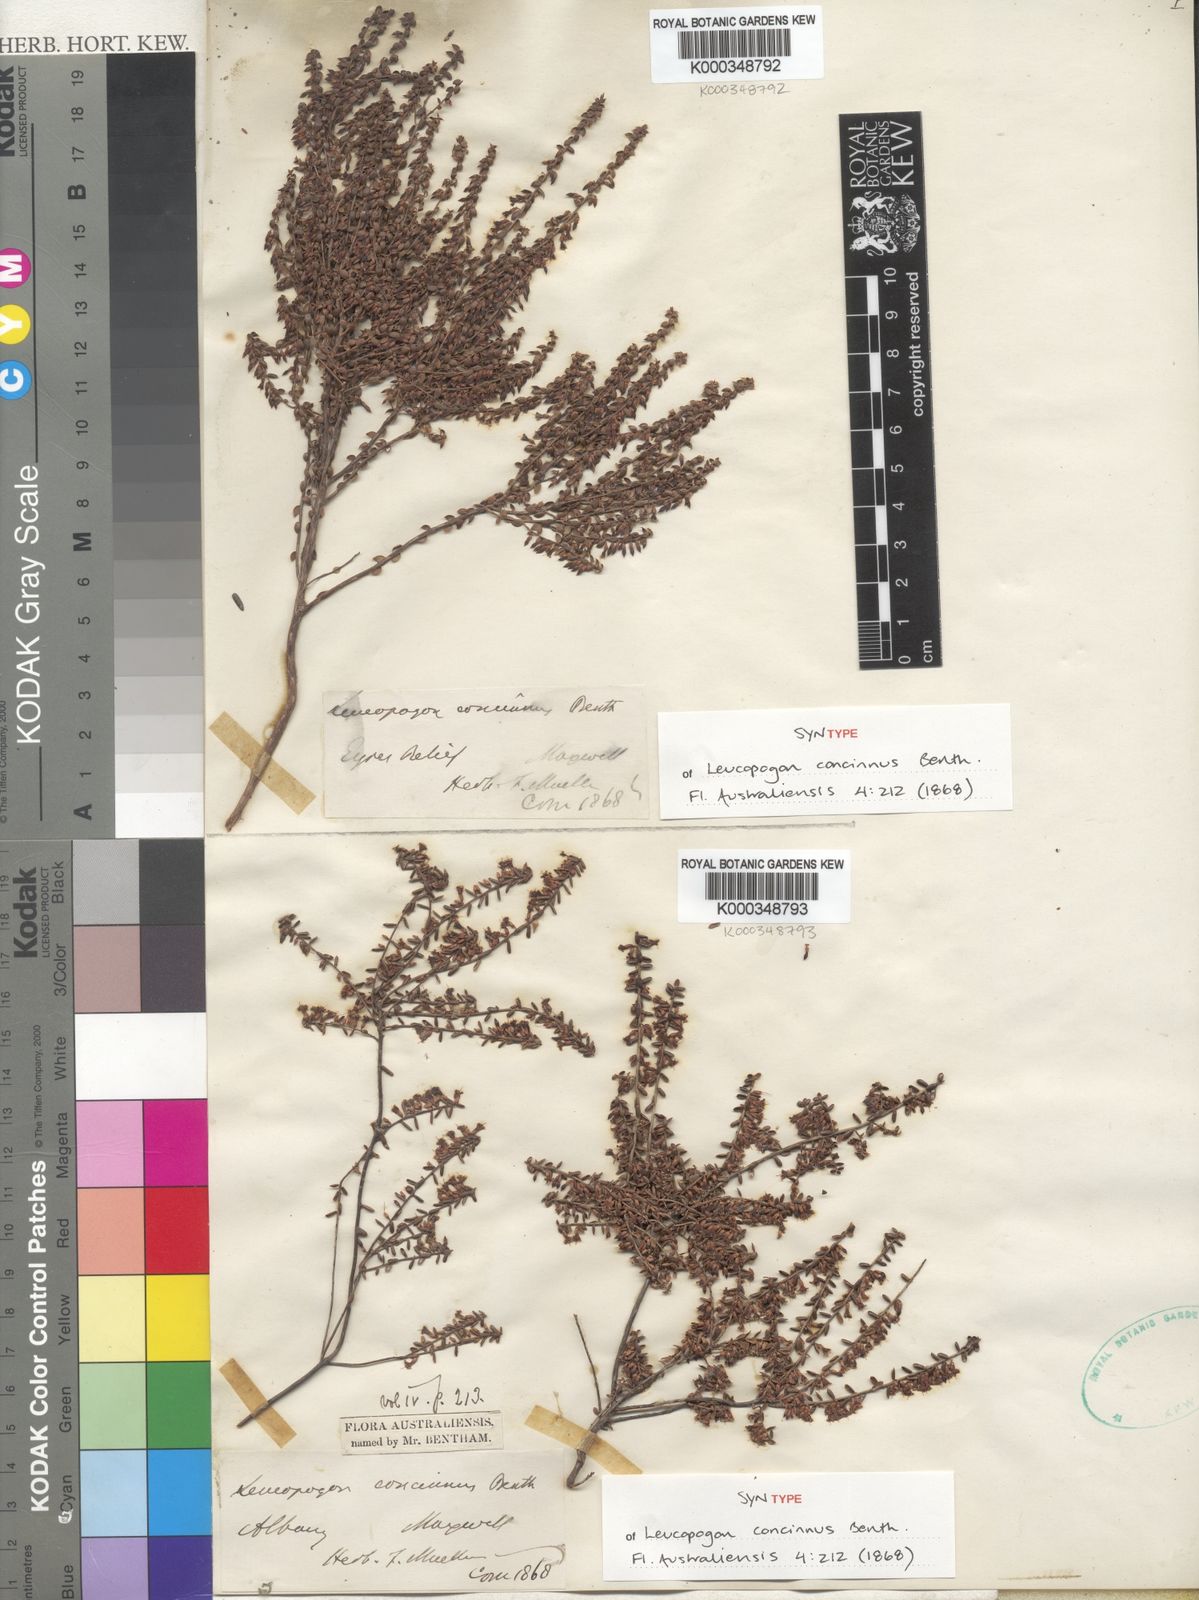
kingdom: Plantae
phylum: Tracheophyta
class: Magnoliopsida
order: Ericales
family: Ericaceae
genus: Styphelia
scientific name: Styphelia concinna
